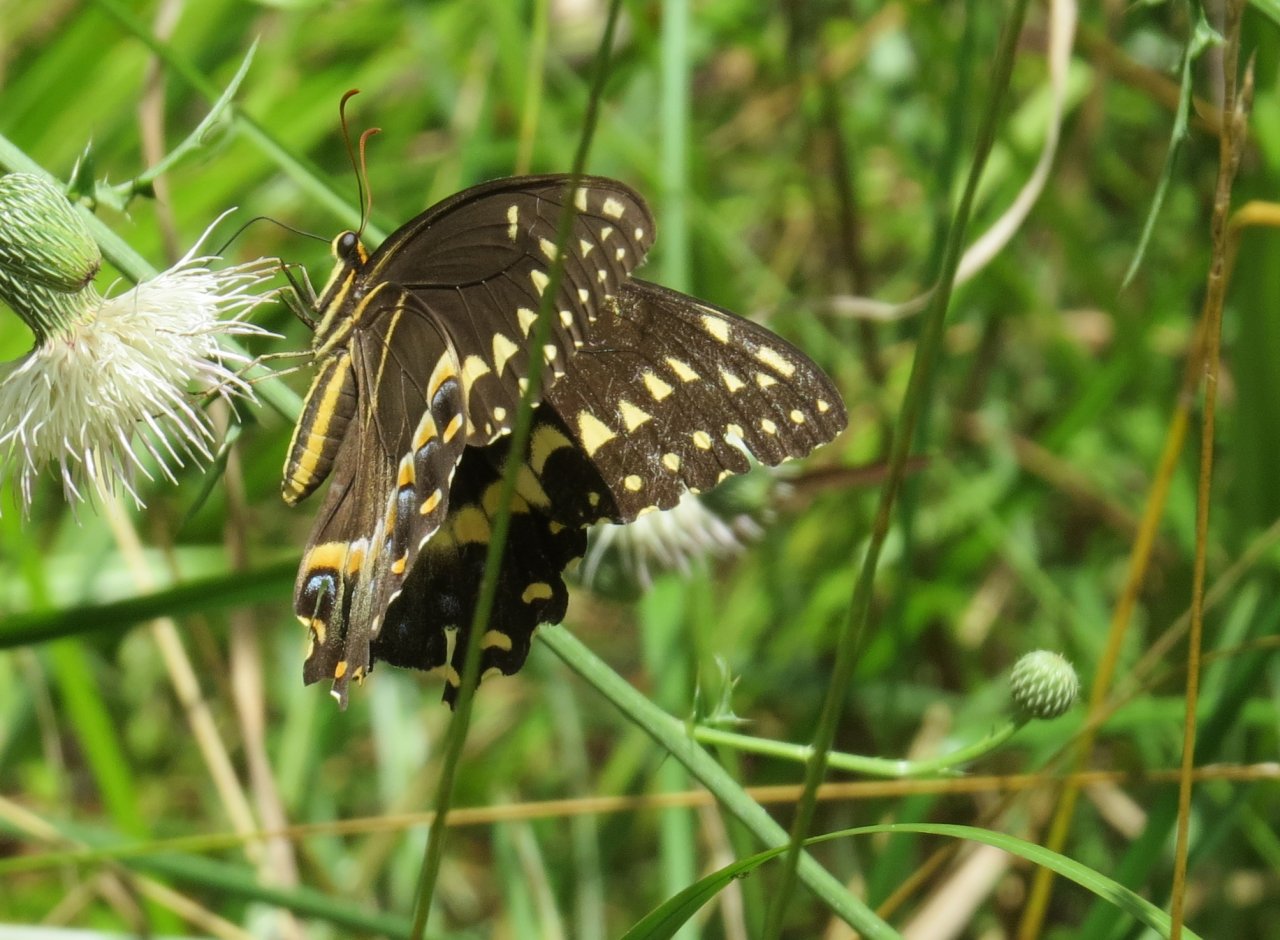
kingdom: Animalia
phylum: Arthropoda
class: Insecta
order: Lepidoptera
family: Papilionidae
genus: Pterourus
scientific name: Pterourus palamedes
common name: Palamedes Swallowtail
